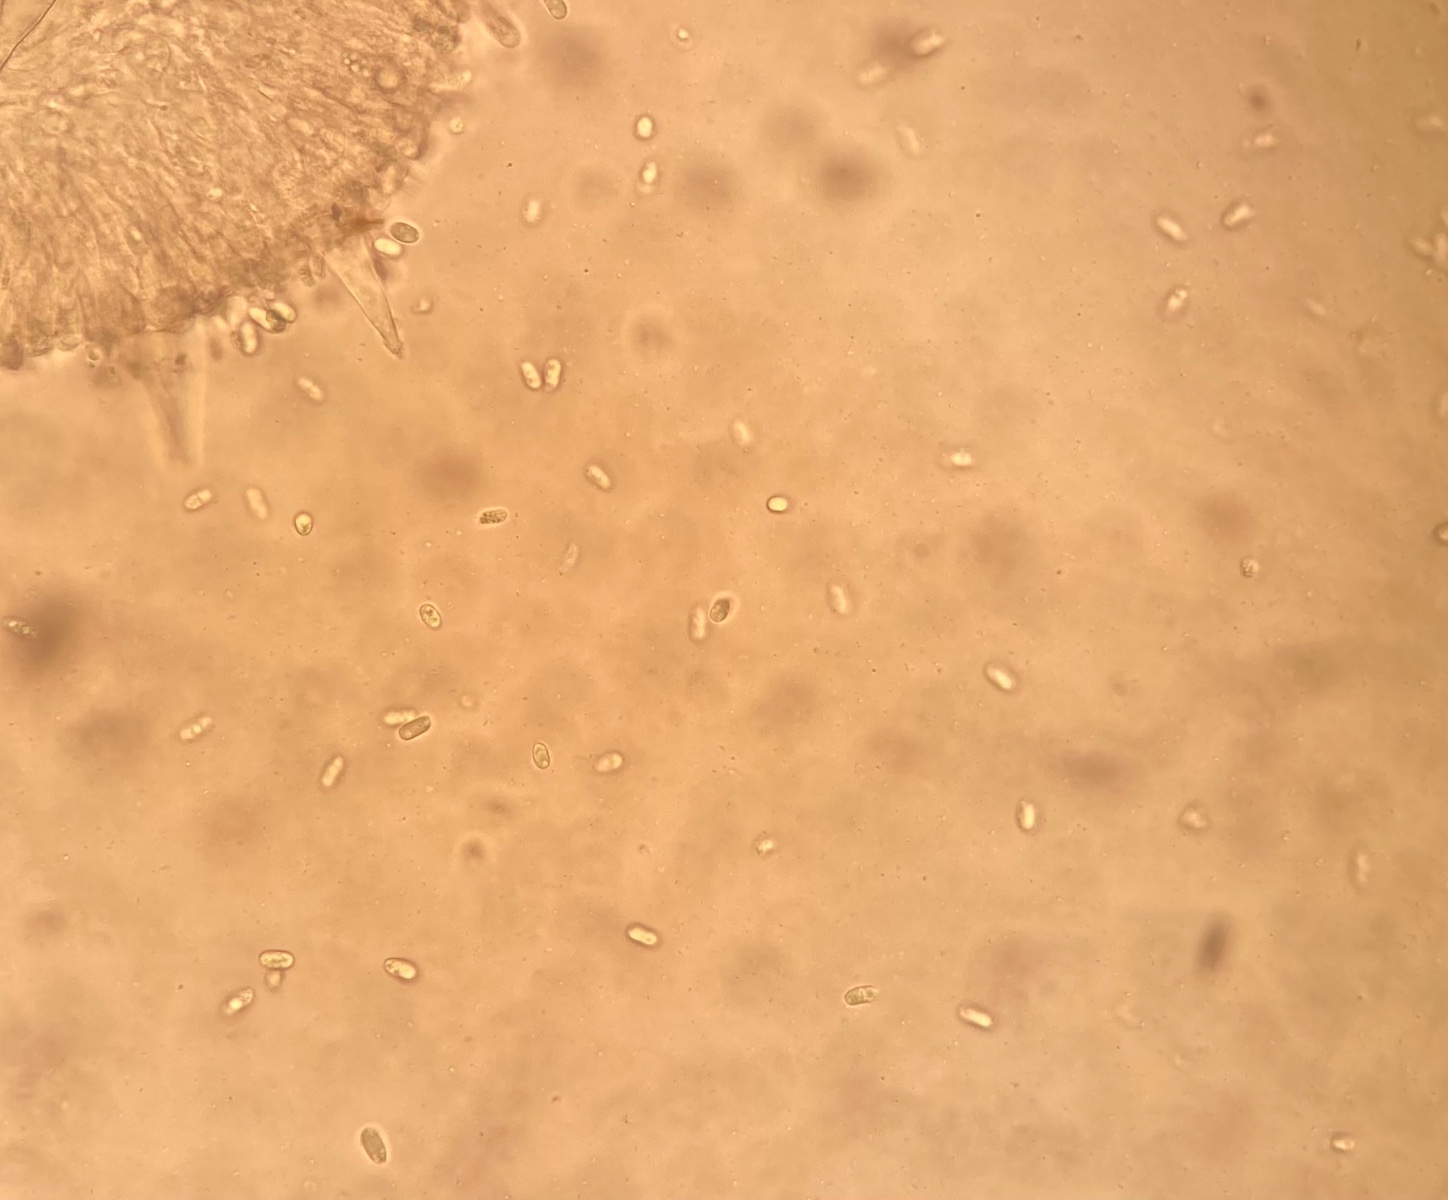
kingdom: Fungi
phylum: Basidiomycota
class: Agaricomycetes
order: Polyporales
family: Polyporaceae
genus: Faerberia
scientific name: Faerberia carbonaria
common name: kulkantarel
